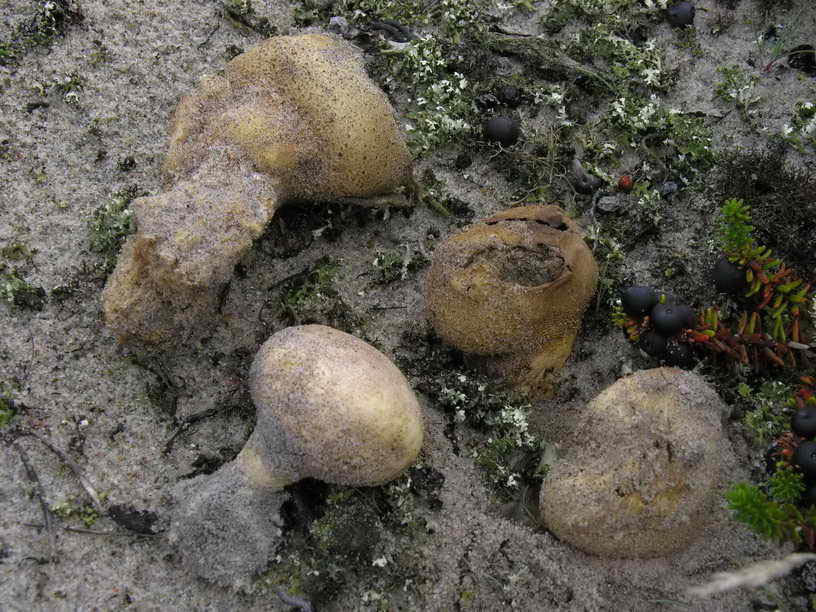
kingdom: Fungi
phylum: Basidiomycota
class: Agaricomycetes
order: Boletales
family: Sclerodermataceae
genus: Scleroderma
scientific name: Scleroderma septentrionale
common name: sand-bruskbold
